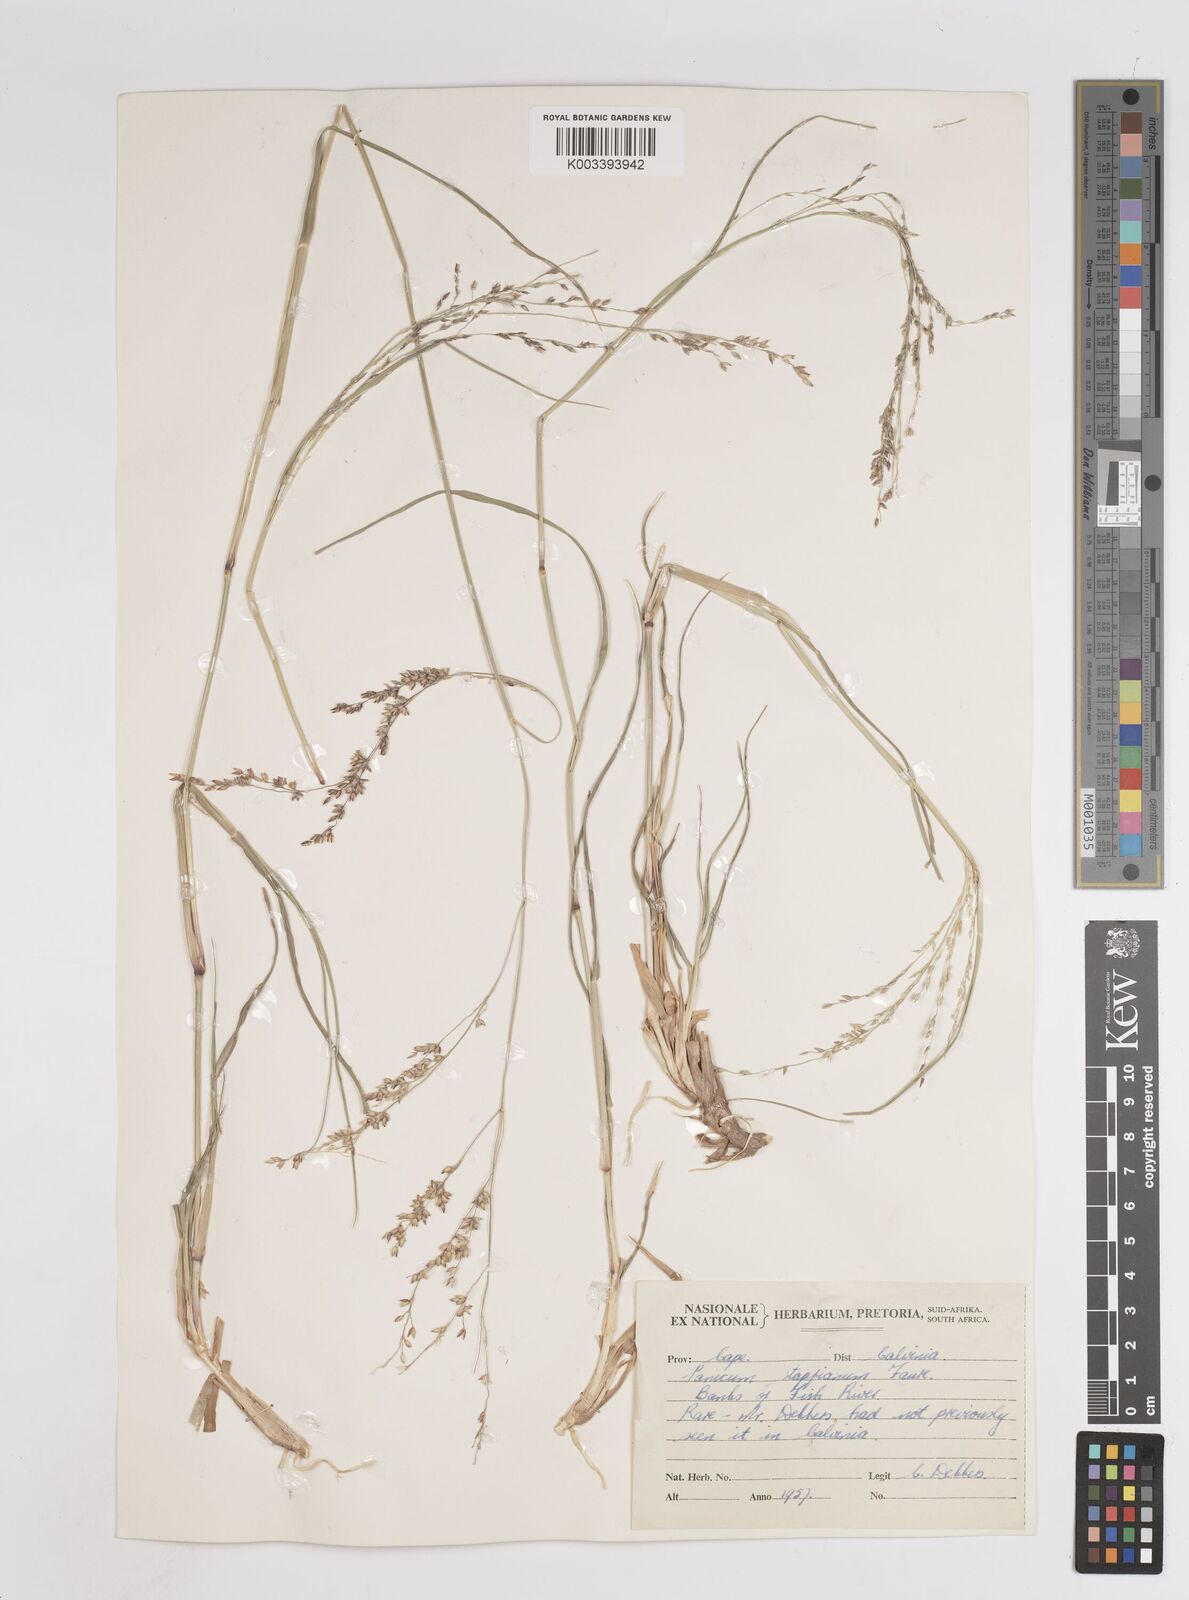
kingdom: Plantae
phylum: Tracheophyta
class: Liliopsida
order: Poales
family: Poaceae
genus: Panicum
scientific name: Panicum coloratum
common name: Kleingrass
